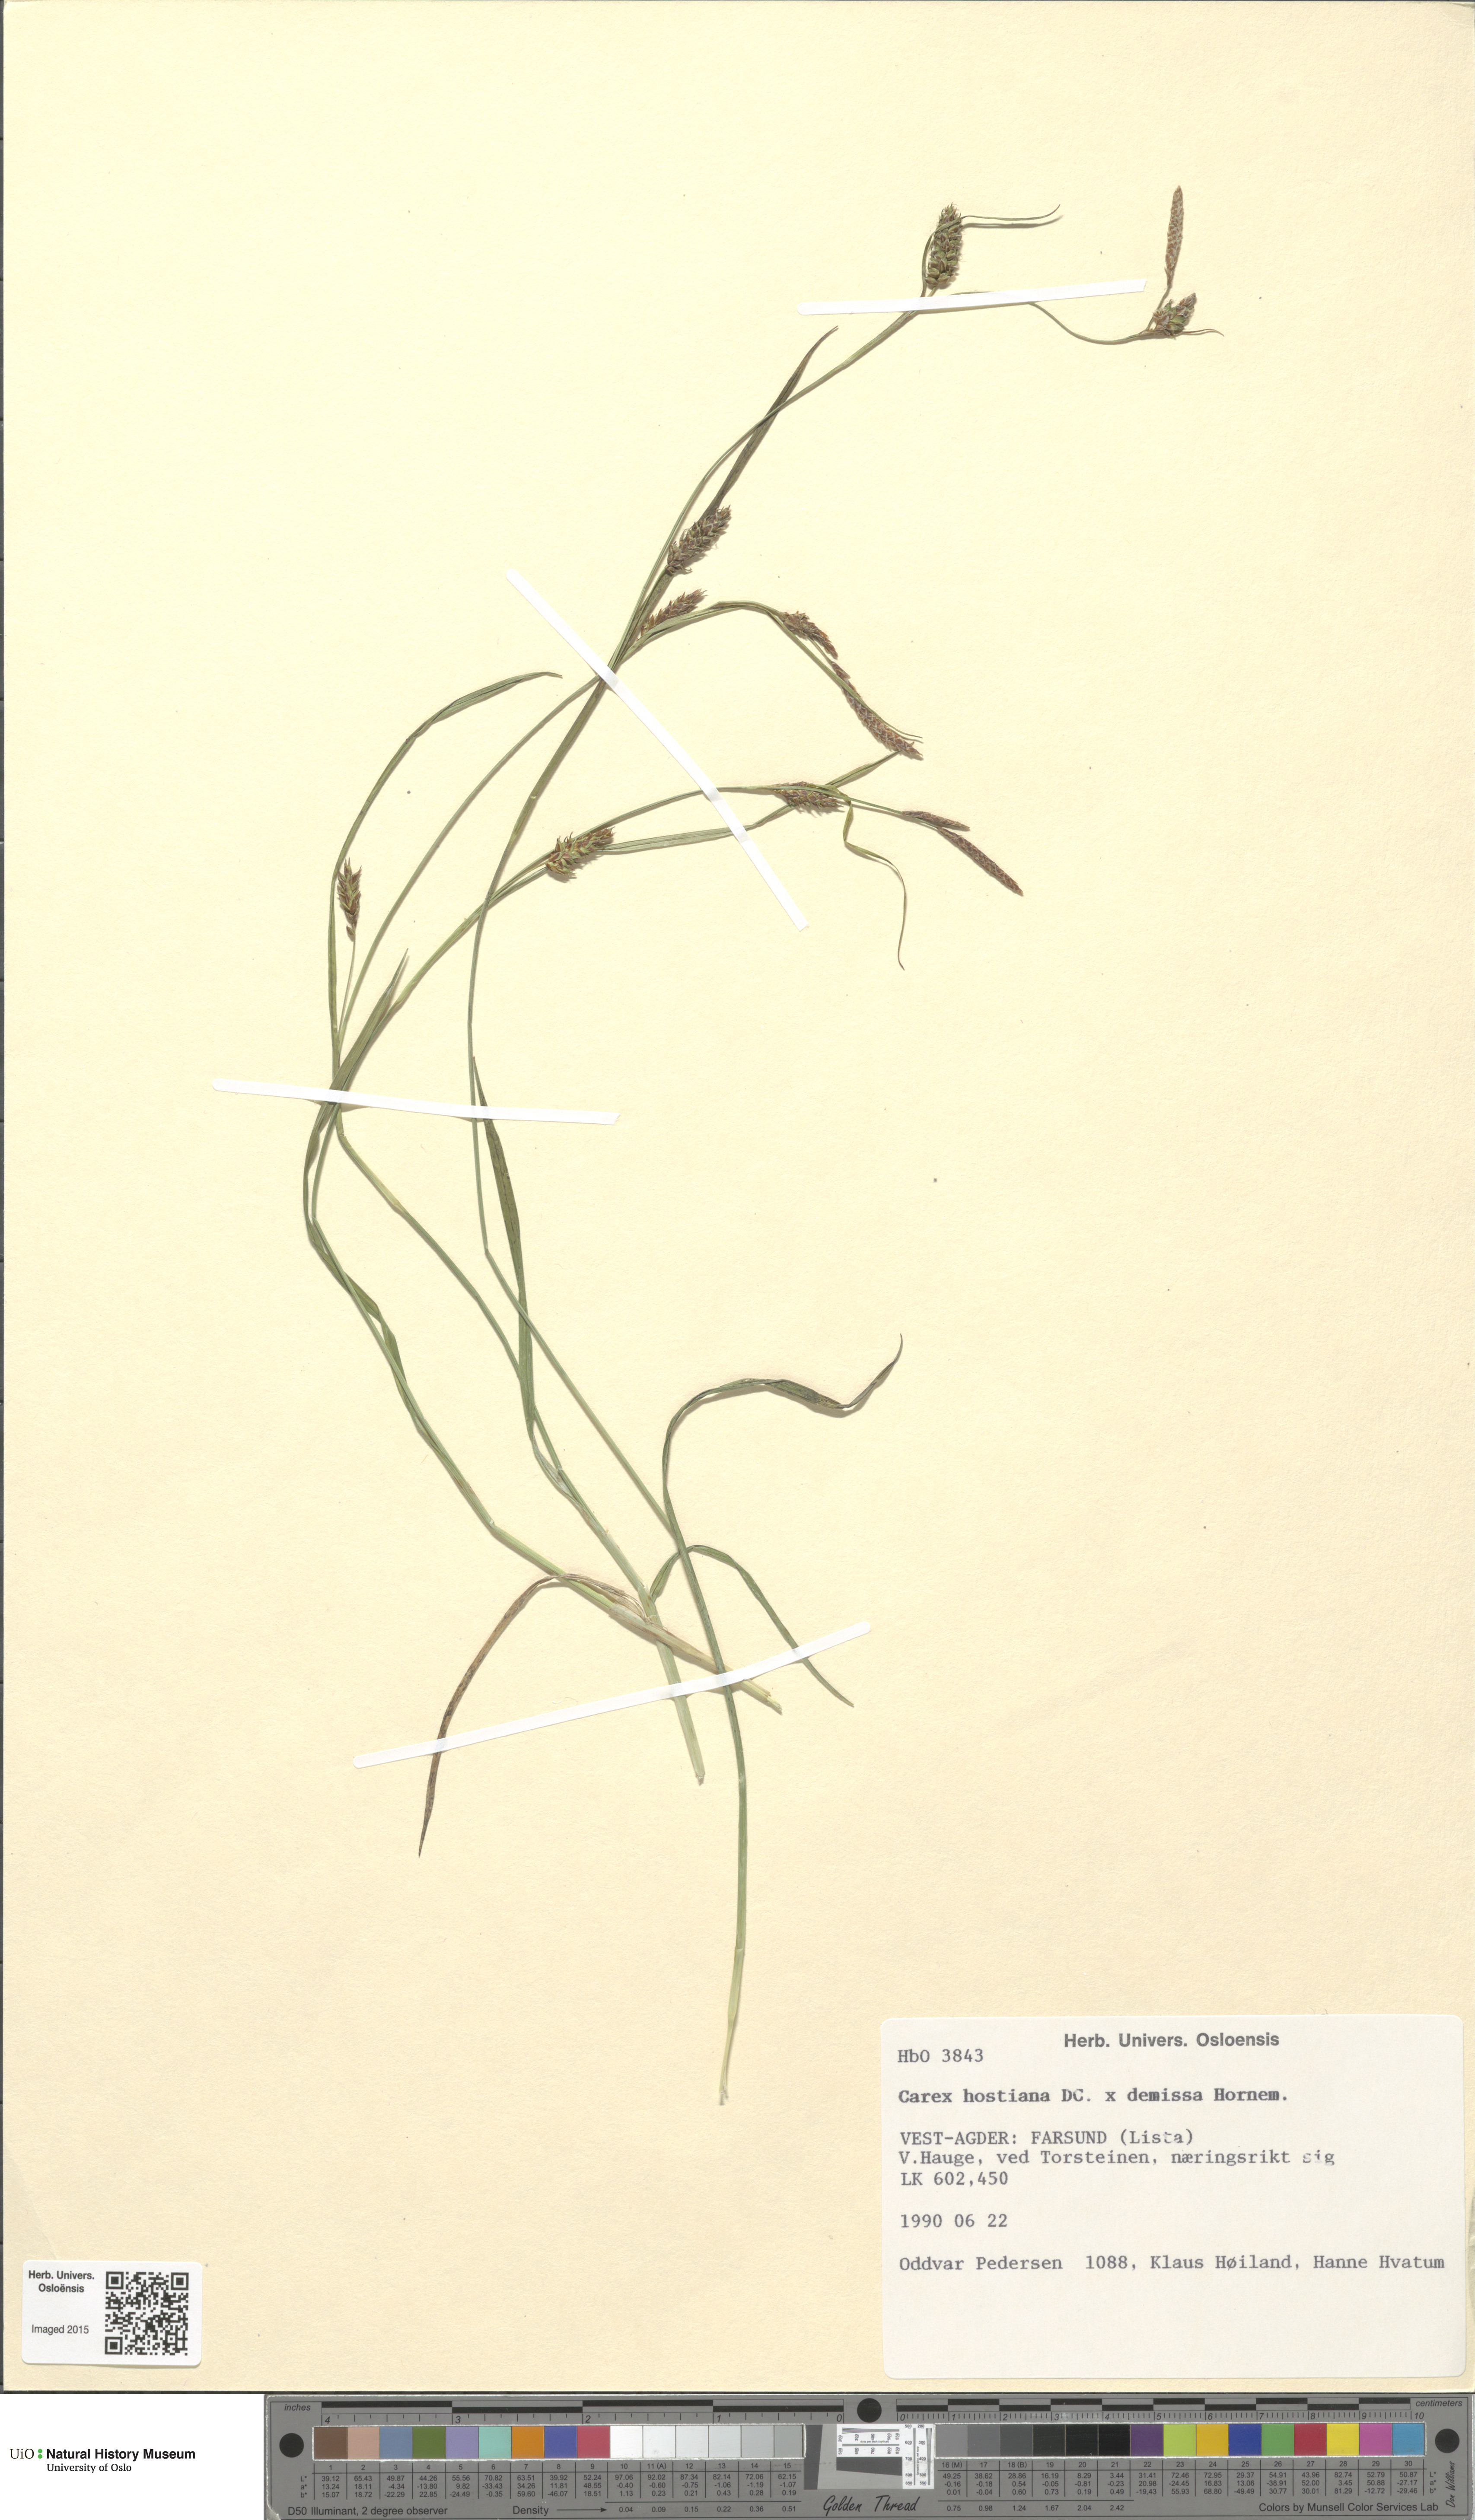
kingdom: Plantae
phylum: Tracheophyta
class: Liliopsida
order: Poales
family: Cyperaceae
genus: Carex
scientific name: Carex
